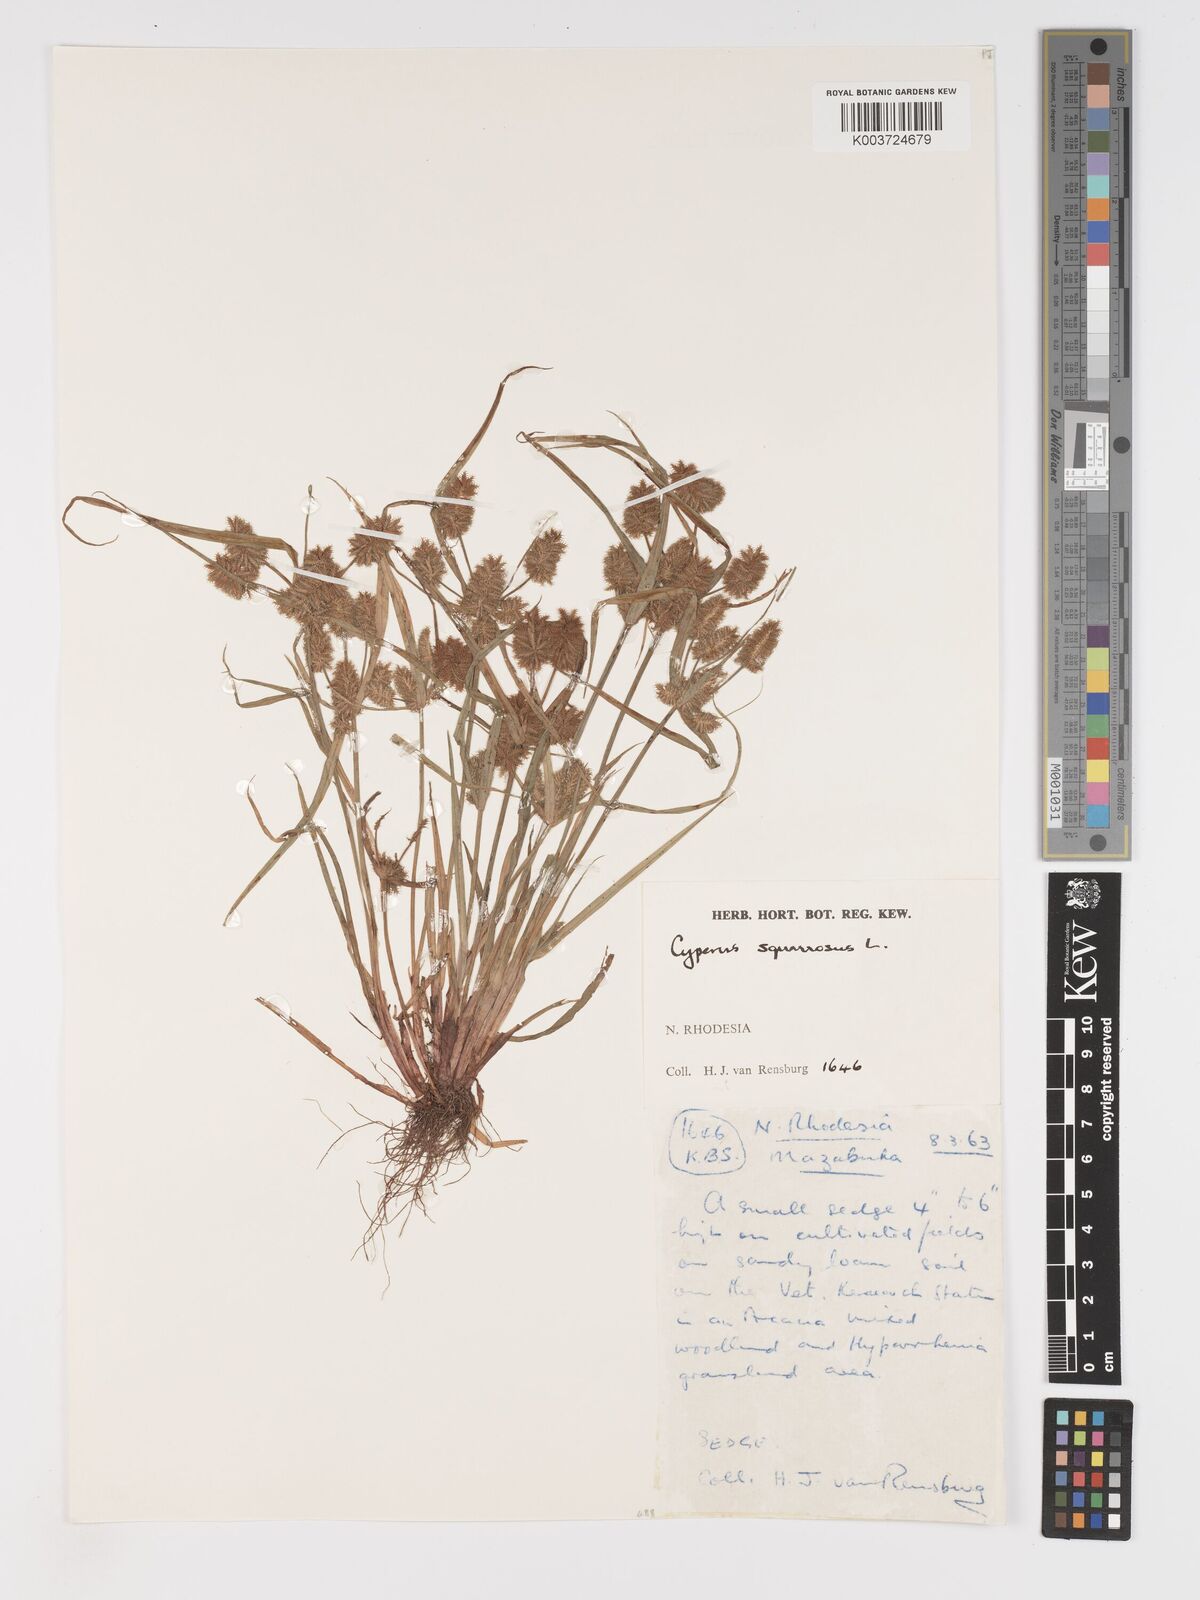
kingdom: Plantae
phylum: Tracheophyta
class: Liliopsida
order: Poales
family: Cyperaceae
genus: Cyperus
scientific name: Cyperus squarrosus
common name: Awned cyperus
